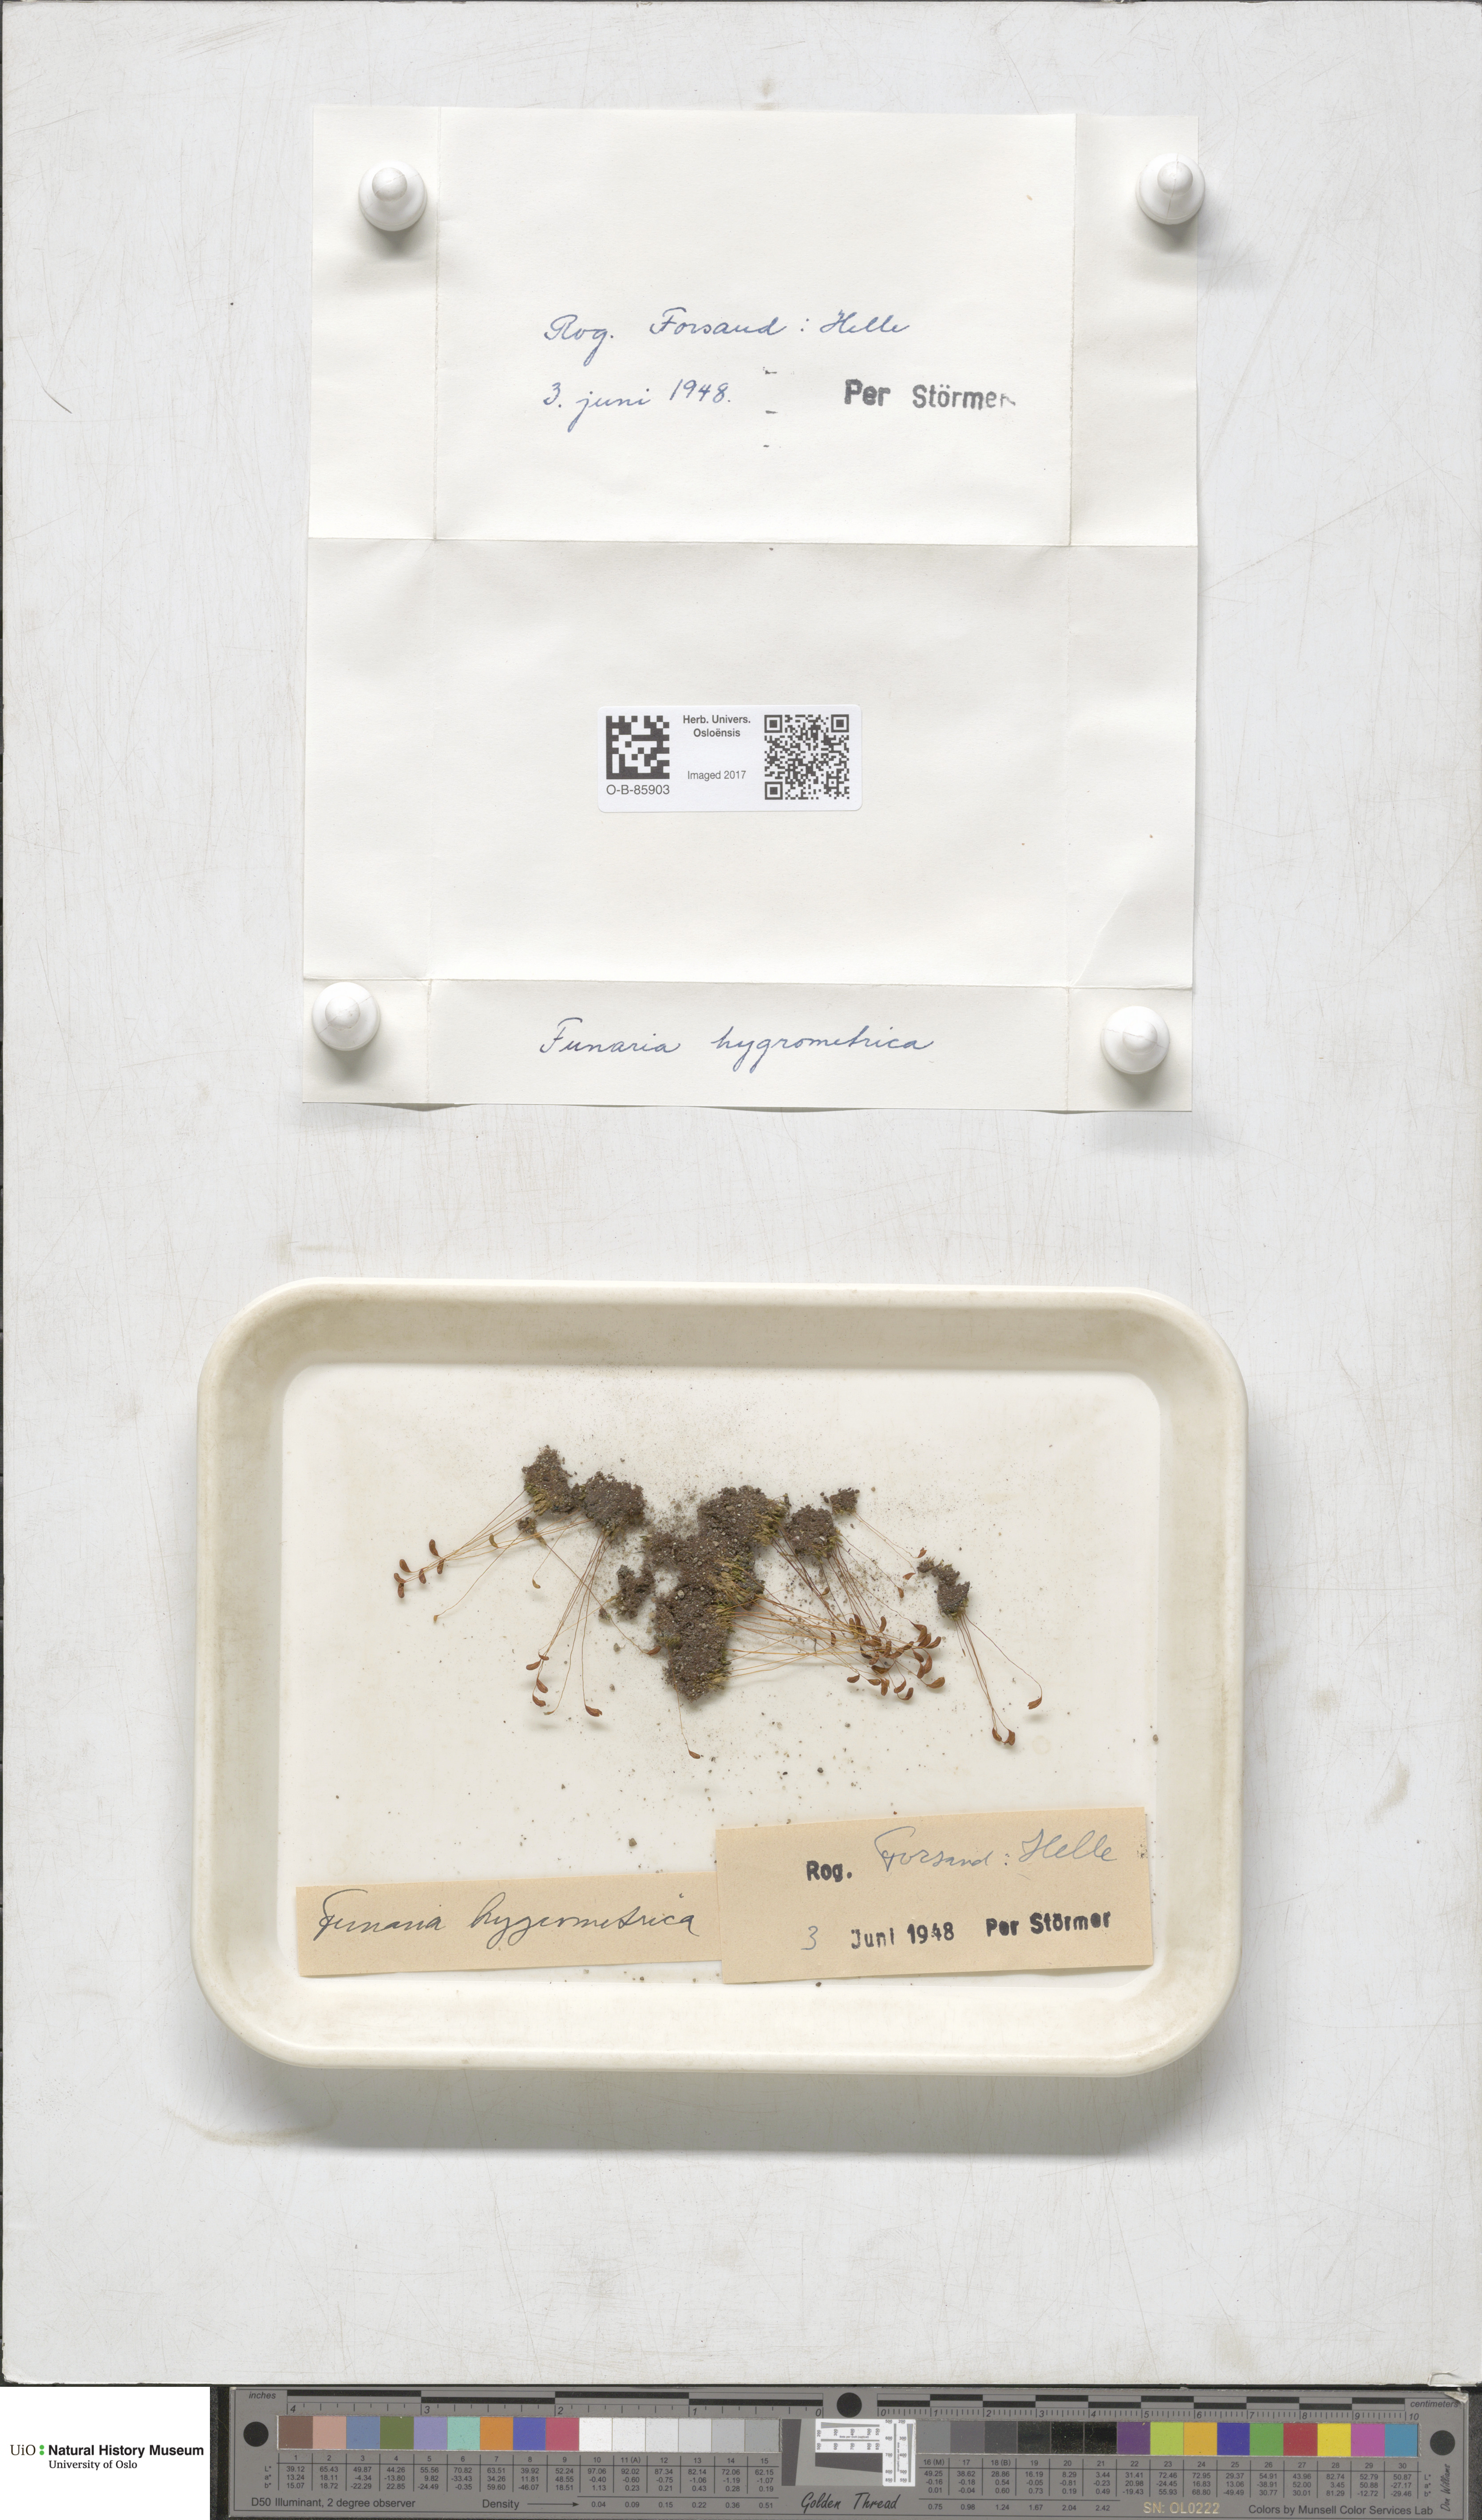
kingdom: Plantae
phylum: Bryophyta
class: Bryopsida
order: Funariales
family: Funariaceae
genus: Funaria
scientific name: Funaria hygrometrica
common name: Common cord moss
